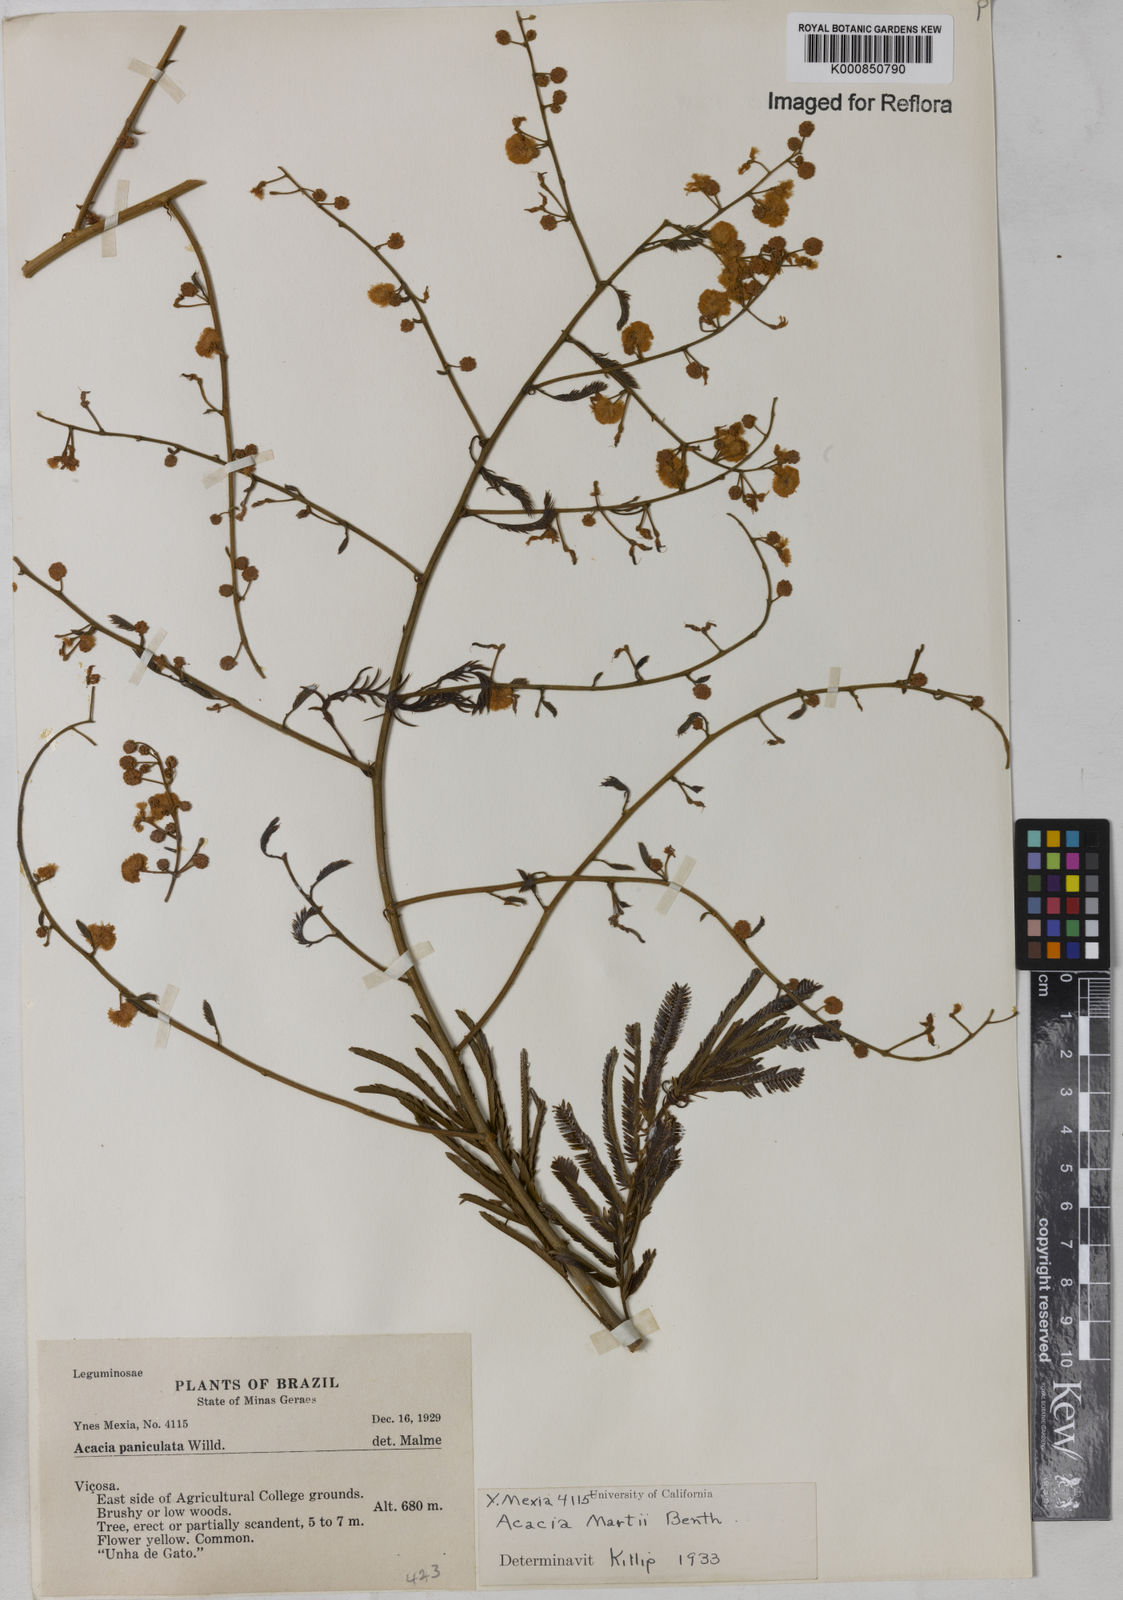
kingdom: Plantae
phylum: Tracheophyta
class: Magnoliopsida
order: Fabales
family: Fabaceae
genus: Senegalia
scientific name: Senegalia martii
